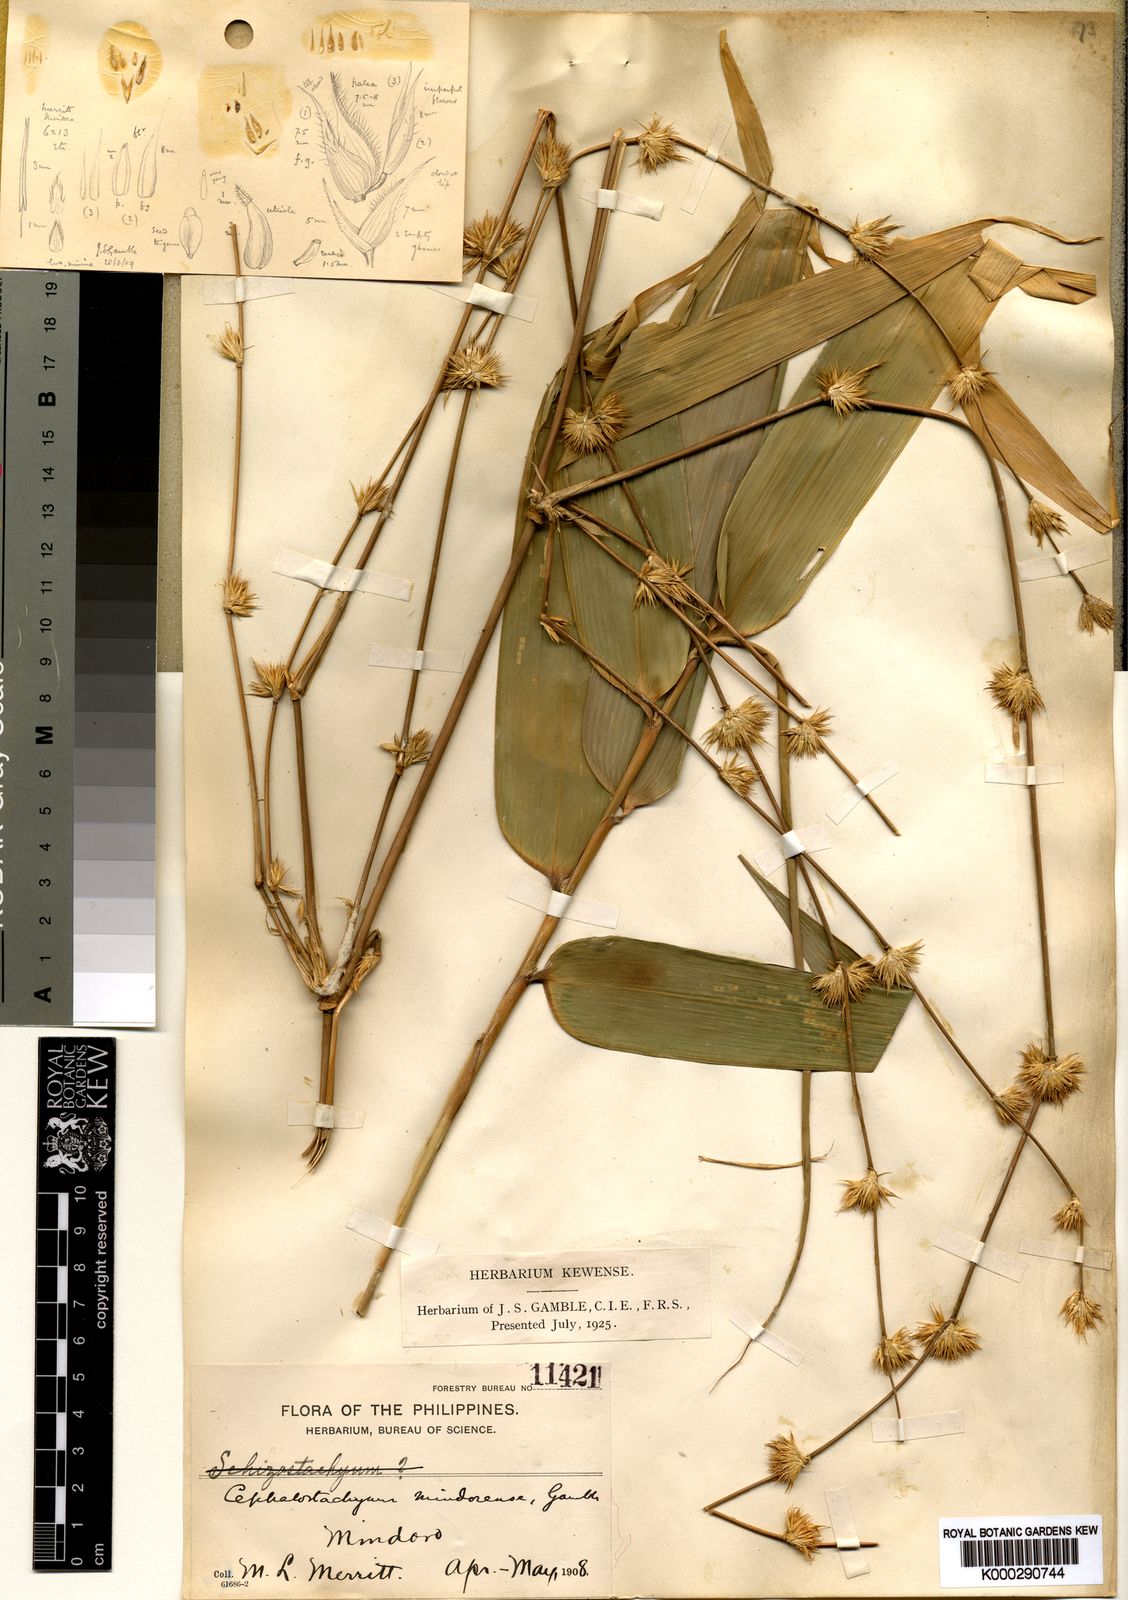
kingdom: Plantae
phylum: Tracheophyta
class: Liliopsida
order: Poales
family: Poaceae
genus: Cephalostachyum
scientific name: Cephalostachyum mindorense
